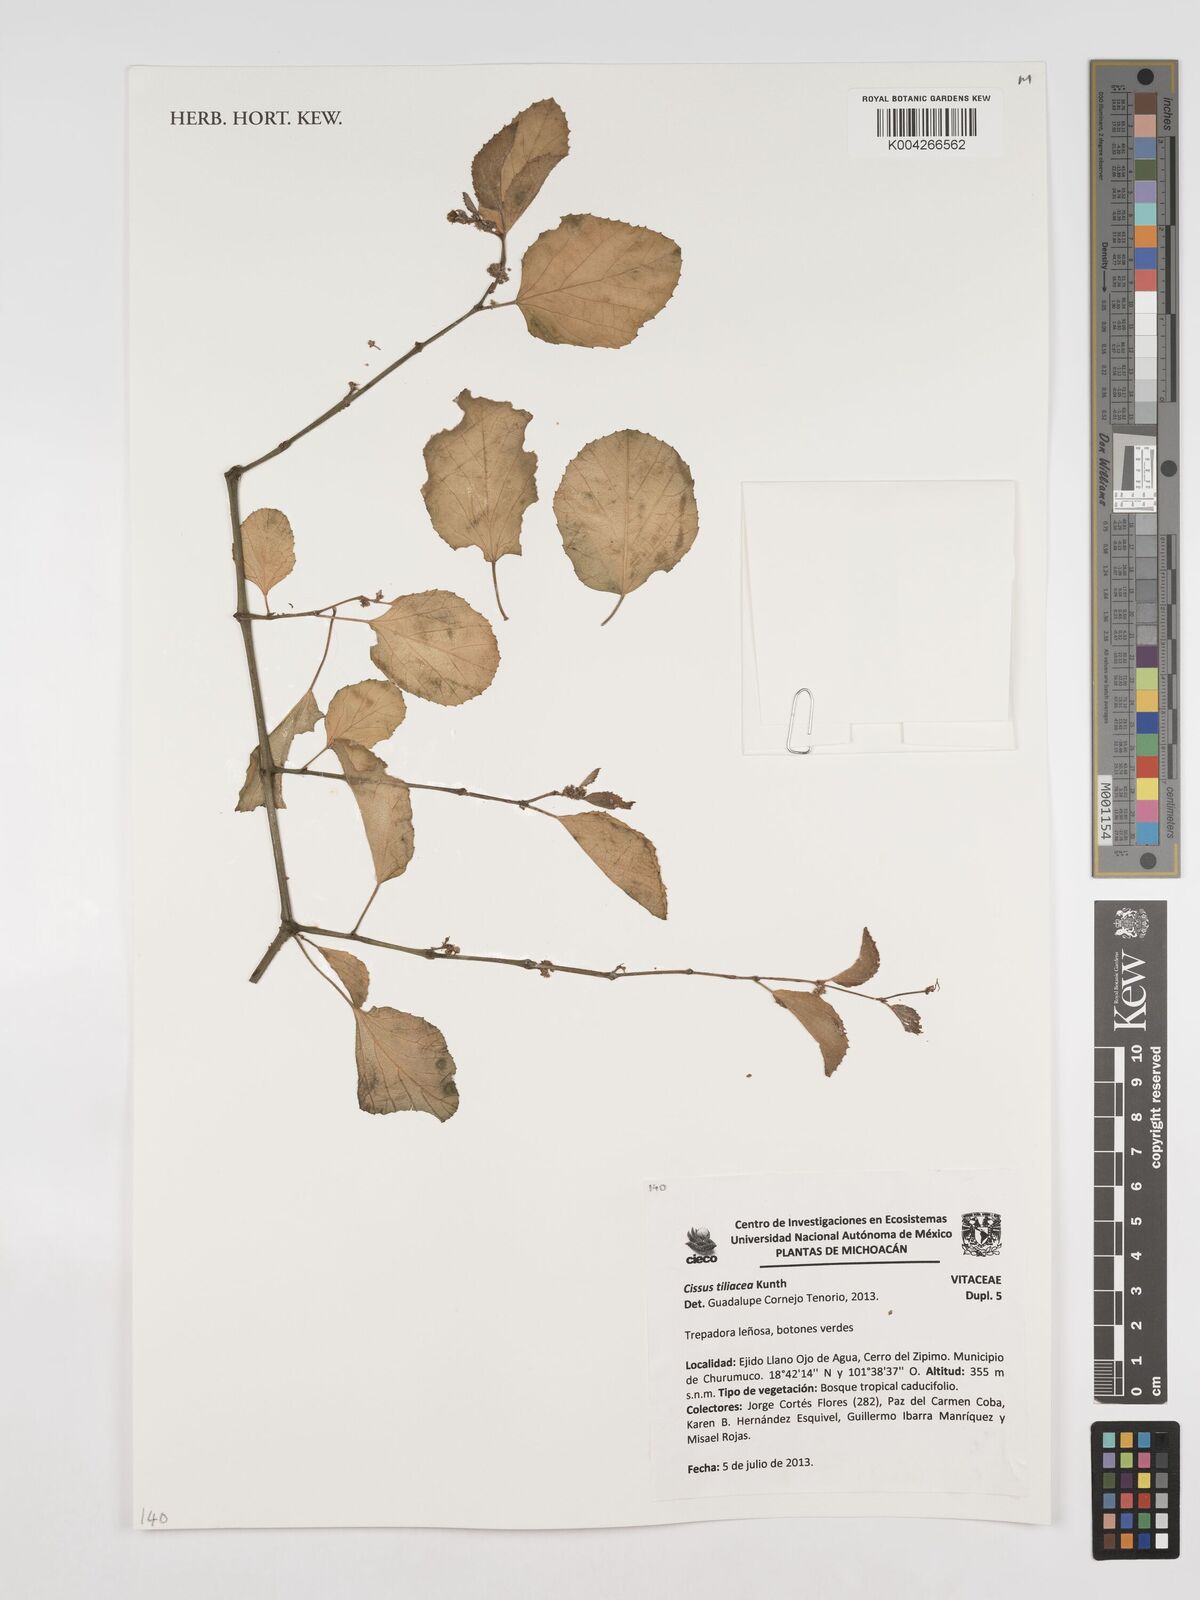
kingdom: Plantae
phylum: Tracheophyta
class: Magnoliopsida
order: Vitales
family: Vitaceae
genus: Cissus
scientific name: Cissus tiliacea
